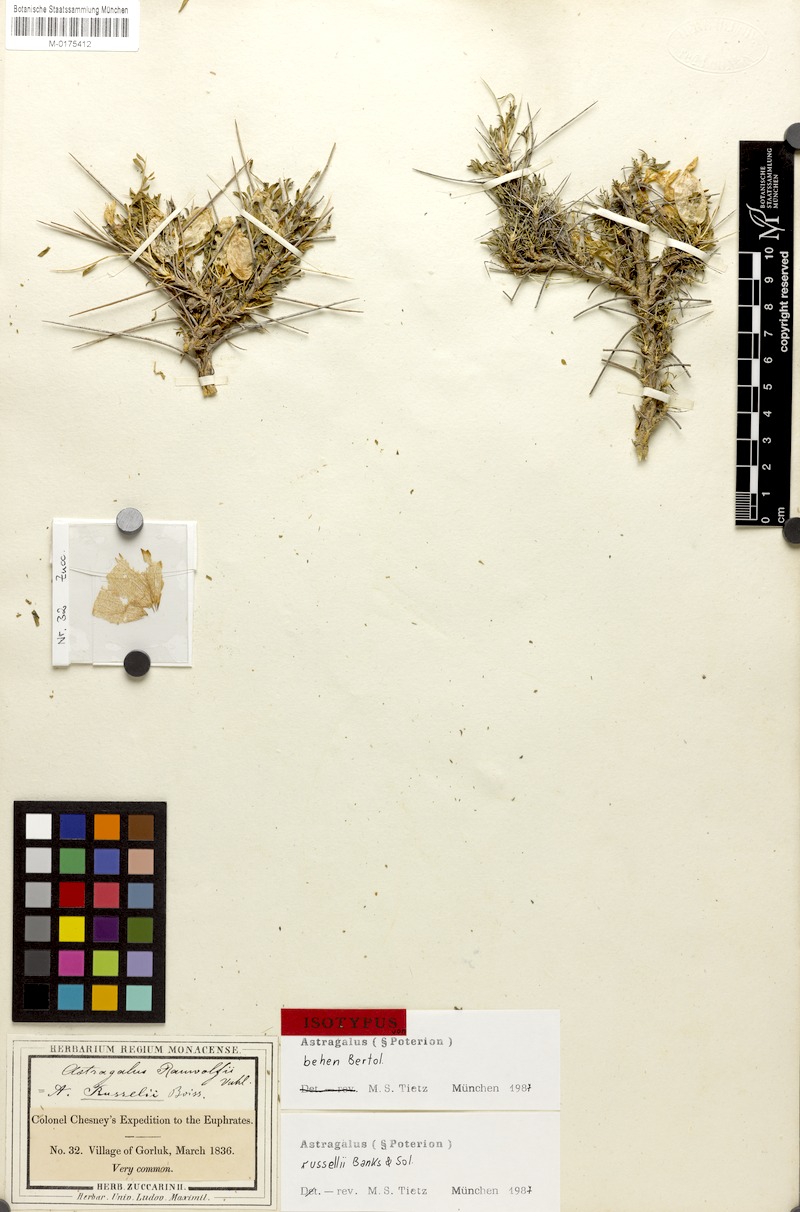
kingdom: Plantae
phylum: Tracheophyta
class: Magnoliopsida
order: Fabales
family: Fabaceae
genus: Astragalus
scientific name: Astragalus russellii
